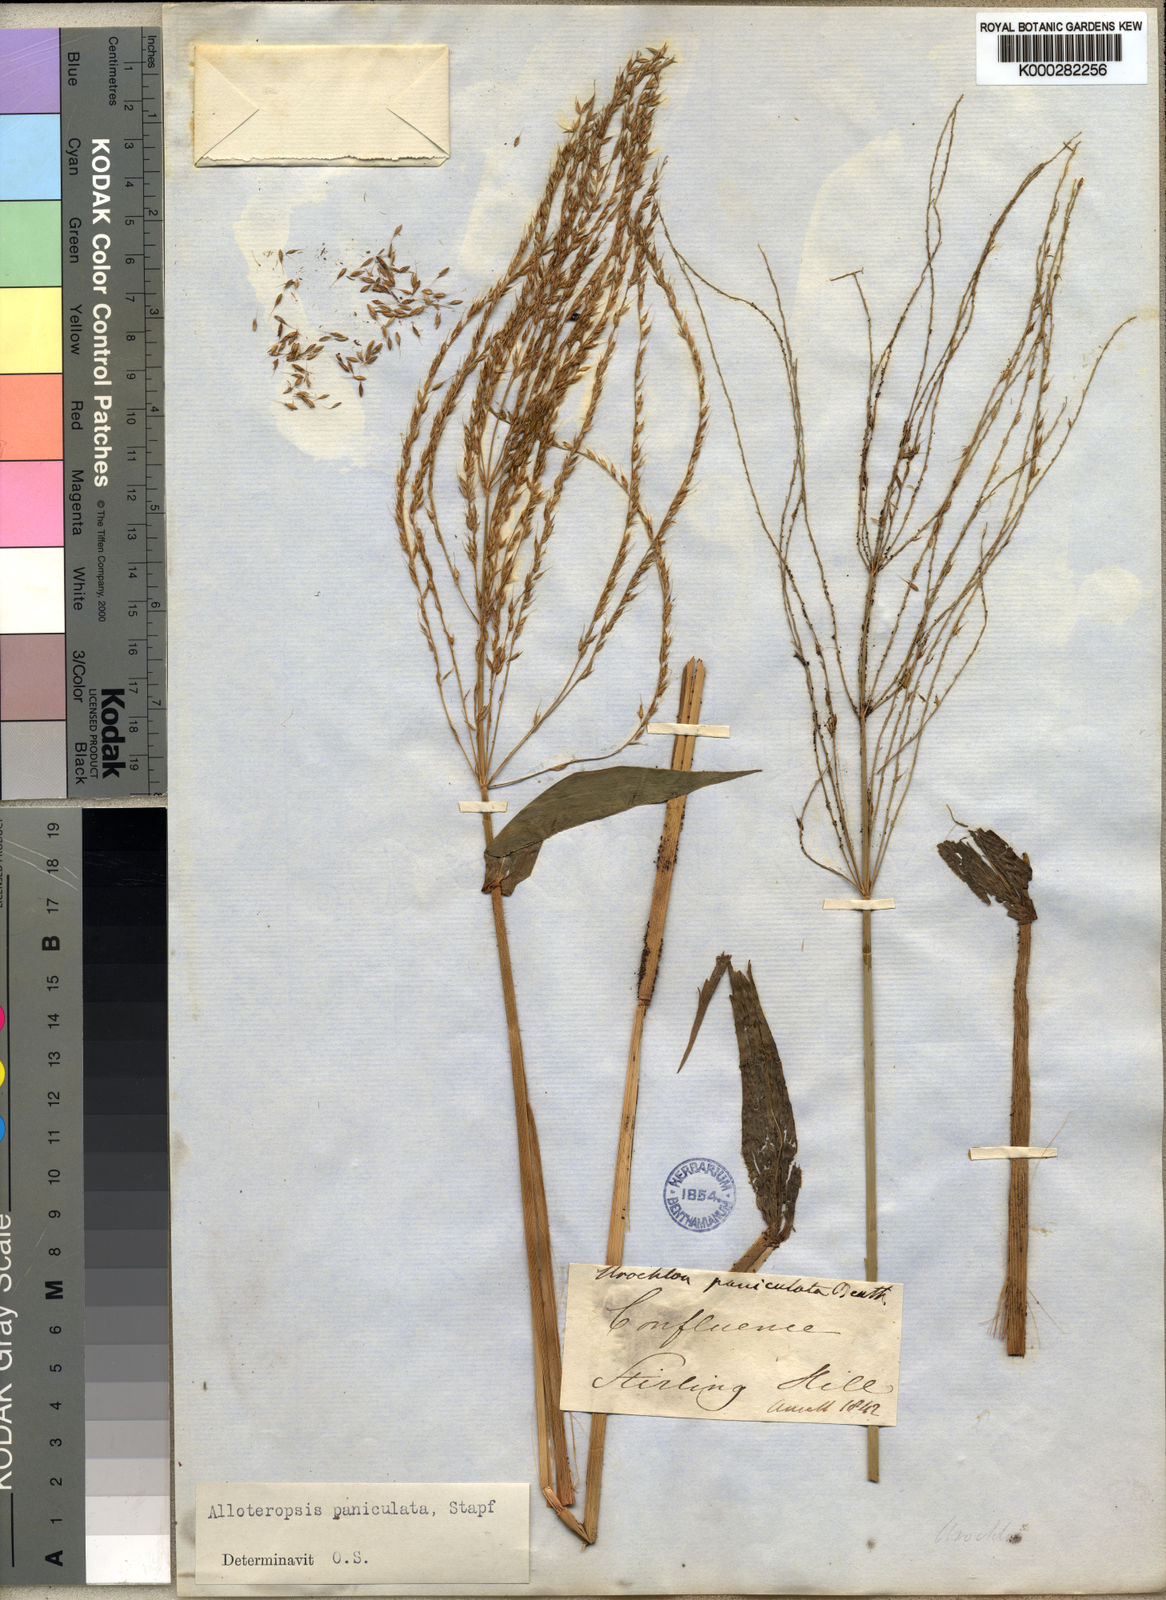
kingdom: Plantae
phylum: Tracheophyta
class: Liliopsida
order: Poales
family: Poaceae
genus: Alloteropsis
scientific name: Alloteropsis paniculata
